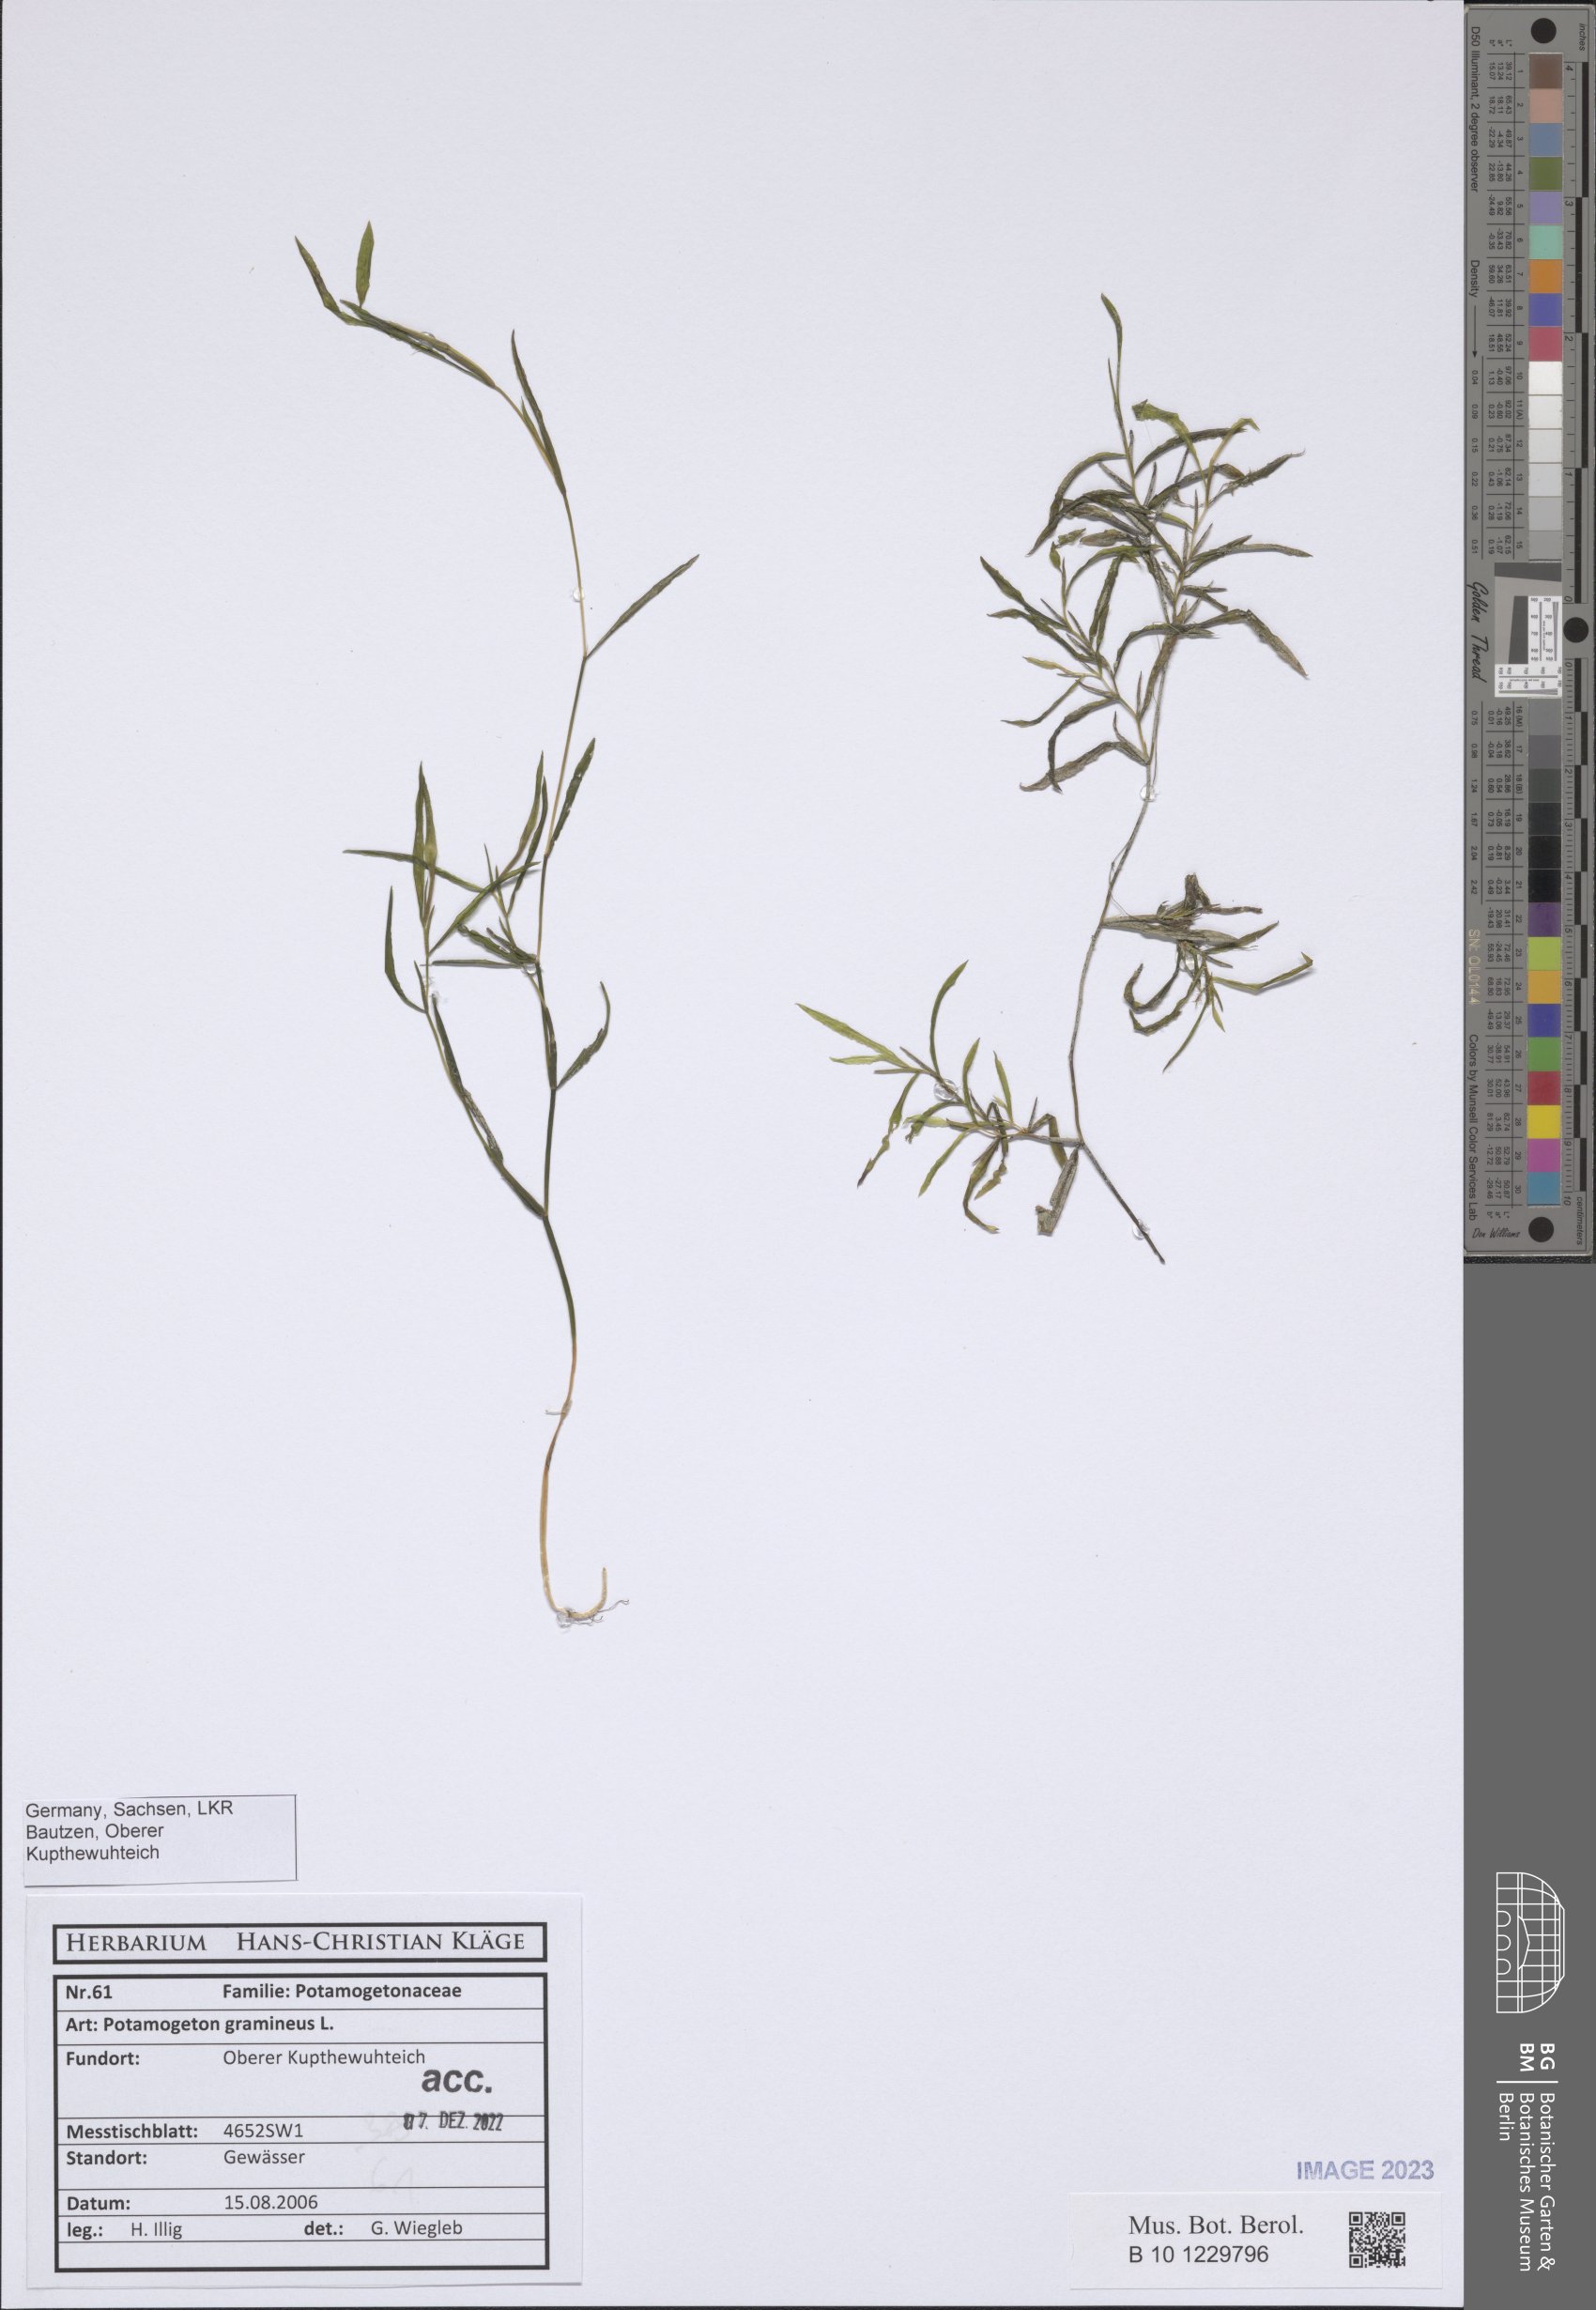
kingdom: Plantae
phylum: Tracheophyta
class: Liliopsida
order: Alismatales
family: Potamogetonaceae
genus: Potamogeton
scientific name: Potamogeton gramineus
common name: Various-leaved pondweed
